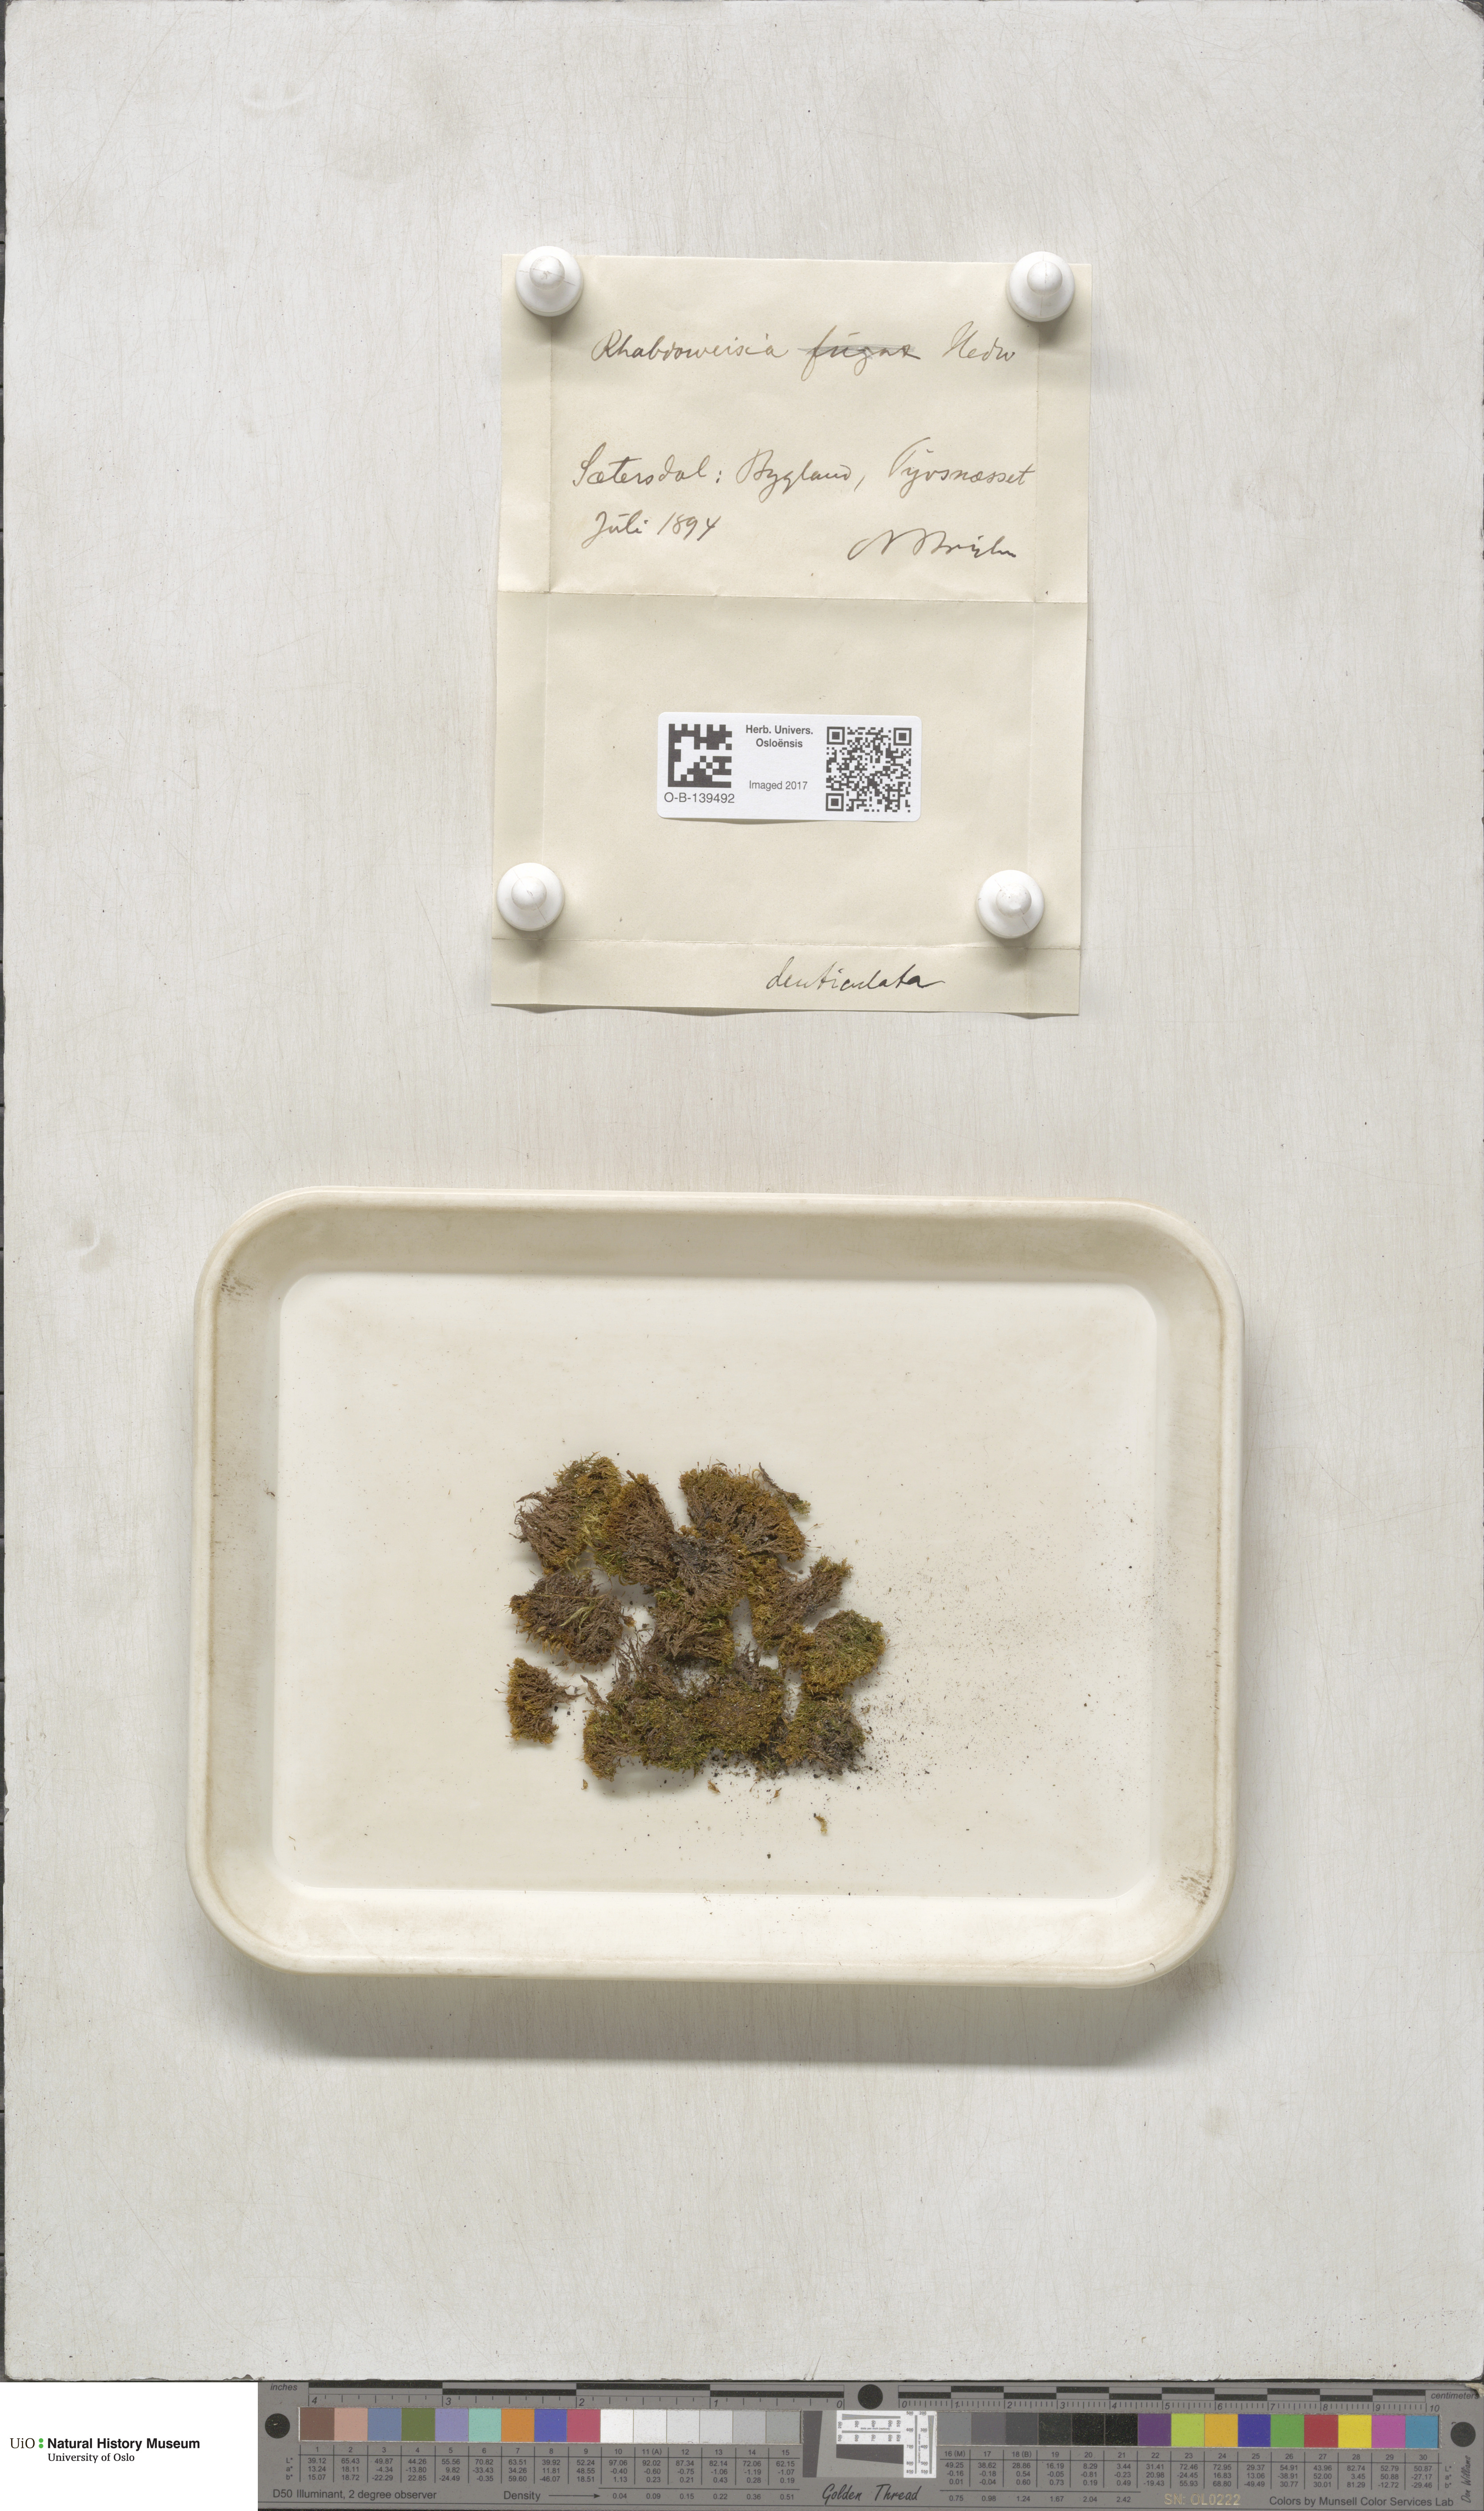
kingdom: Plantae
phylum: Bryophyta
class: Bryopsida
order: Dicranales
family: Rhabdoweisiaceae
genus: Rhabdoweisia
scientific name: Rhabdoweisia crispata
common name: Fine-toothed streak moss
